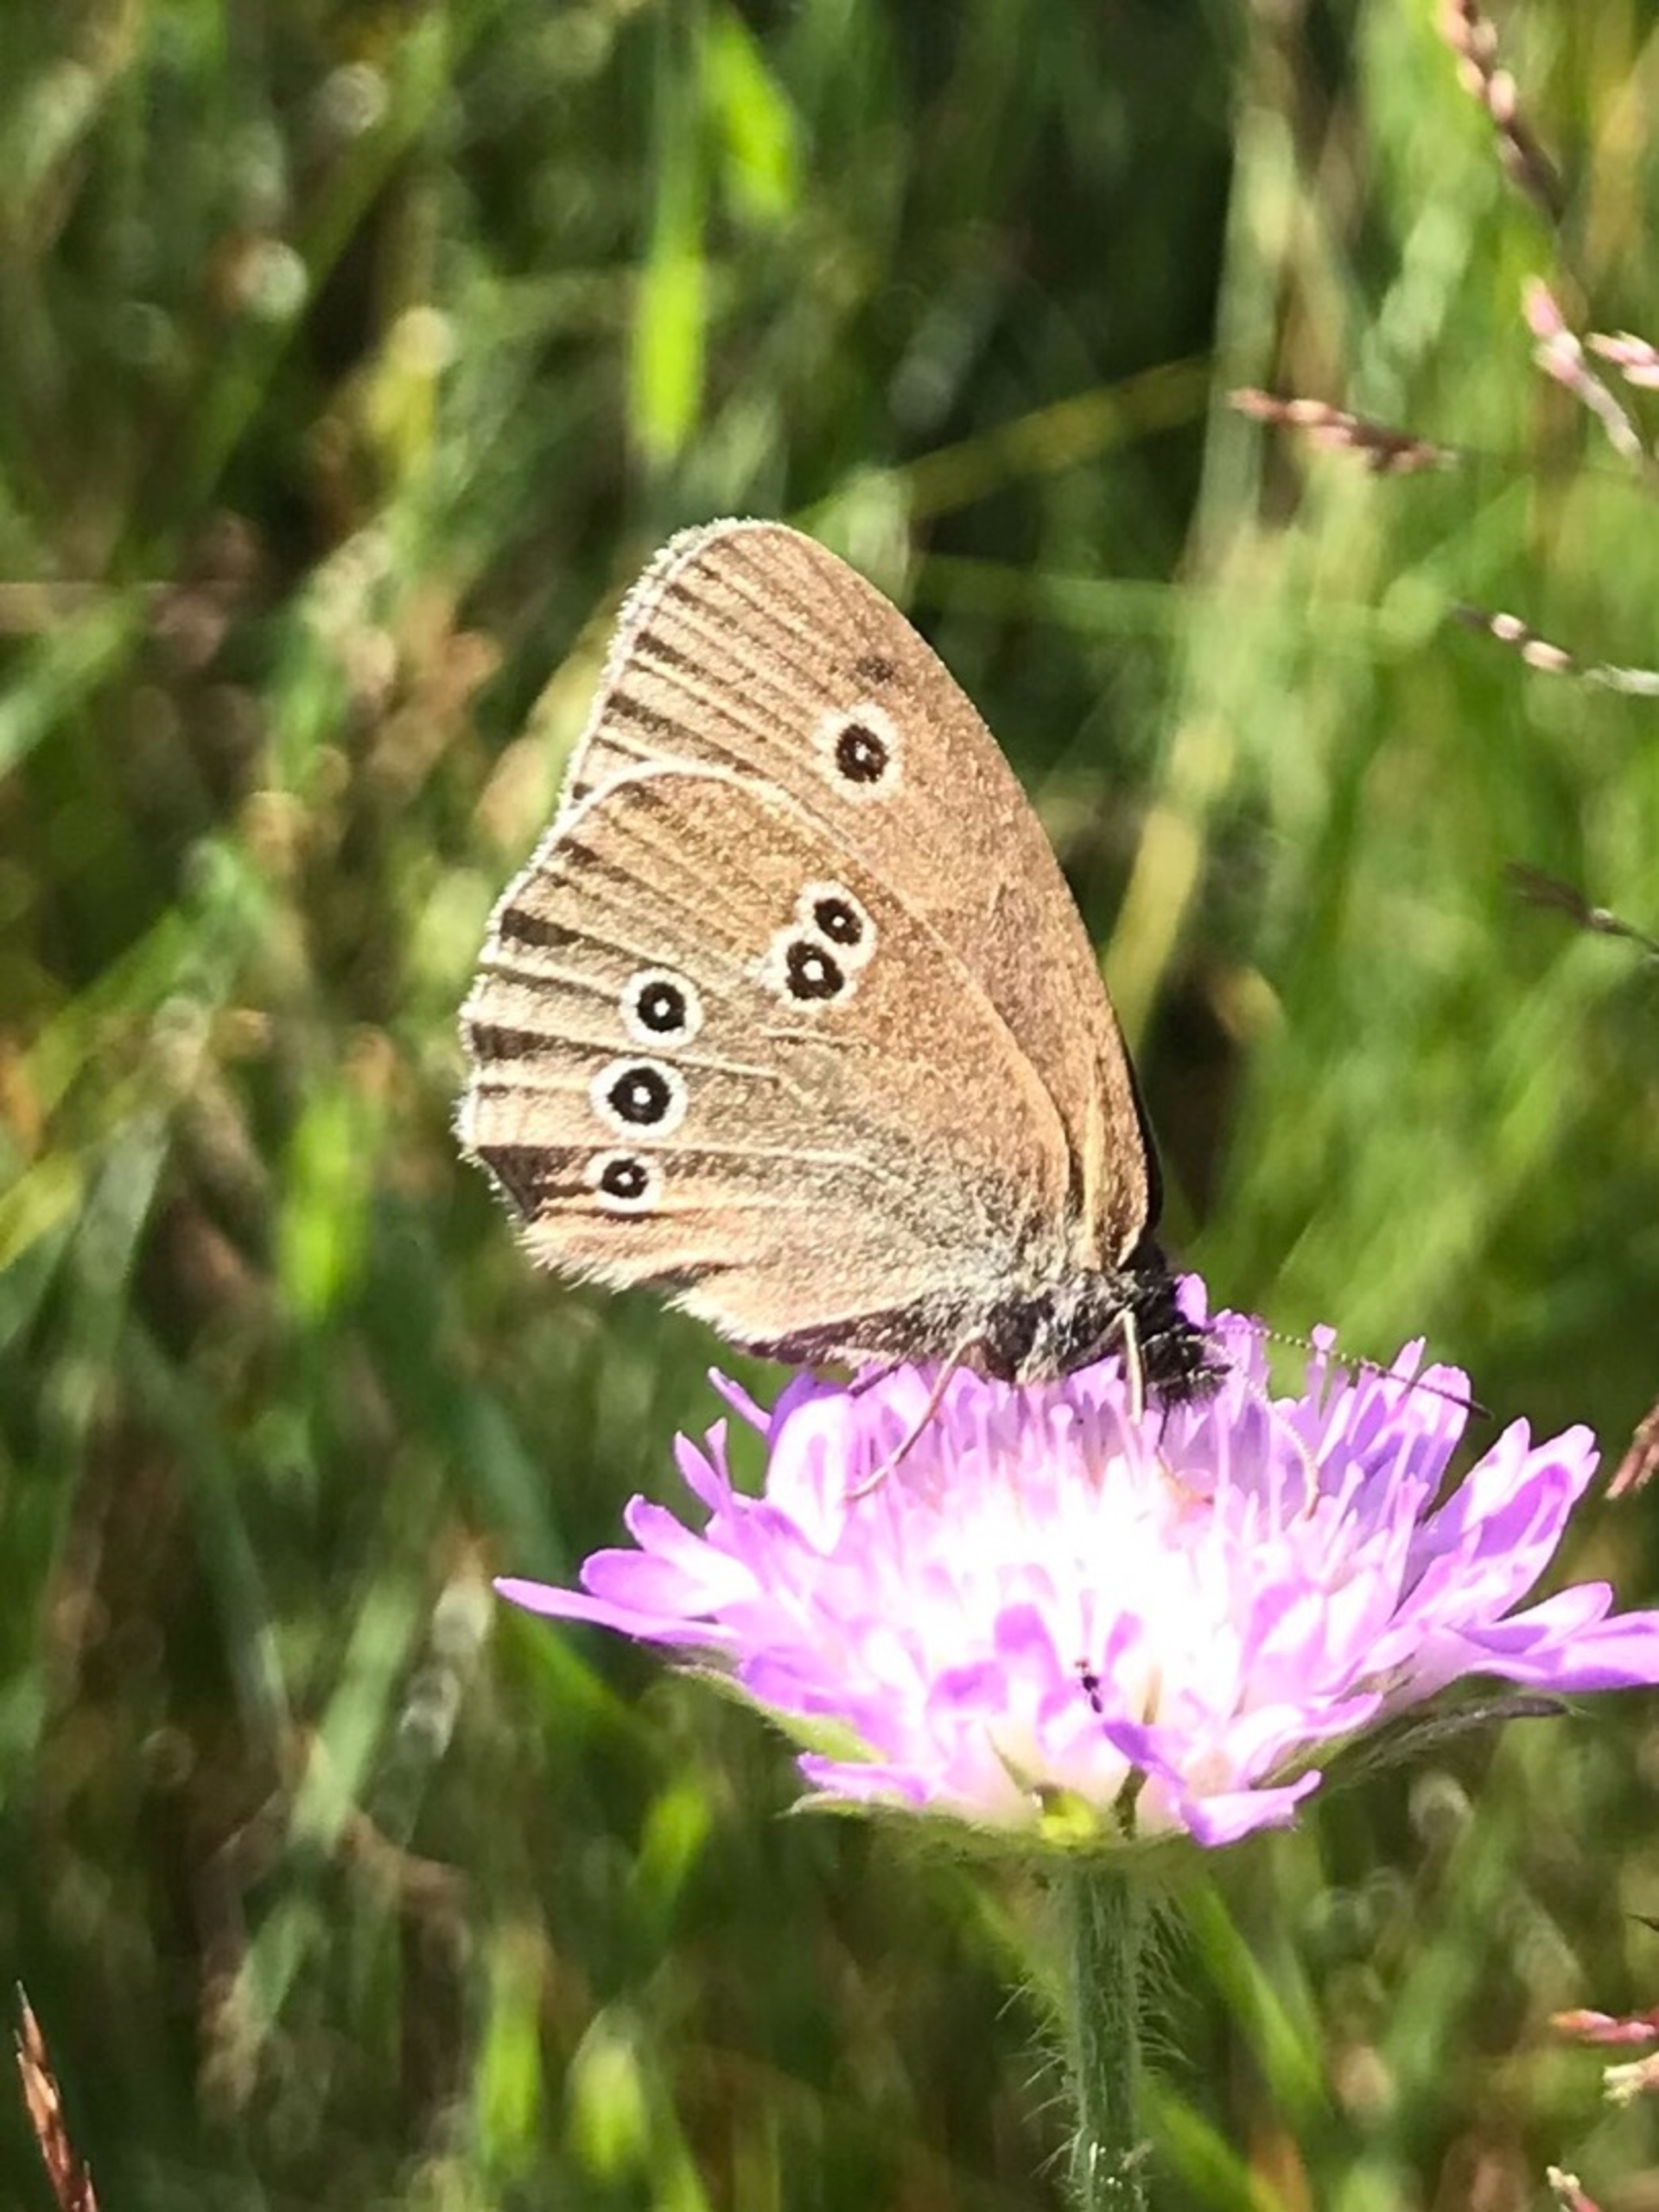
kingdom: Animalia
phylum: Arthropoda
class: Insecta
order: Lepidoptera
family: Nymphalidae
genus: Aphantopus
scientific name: Aphantopus hyperantus
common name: Engrandøje
